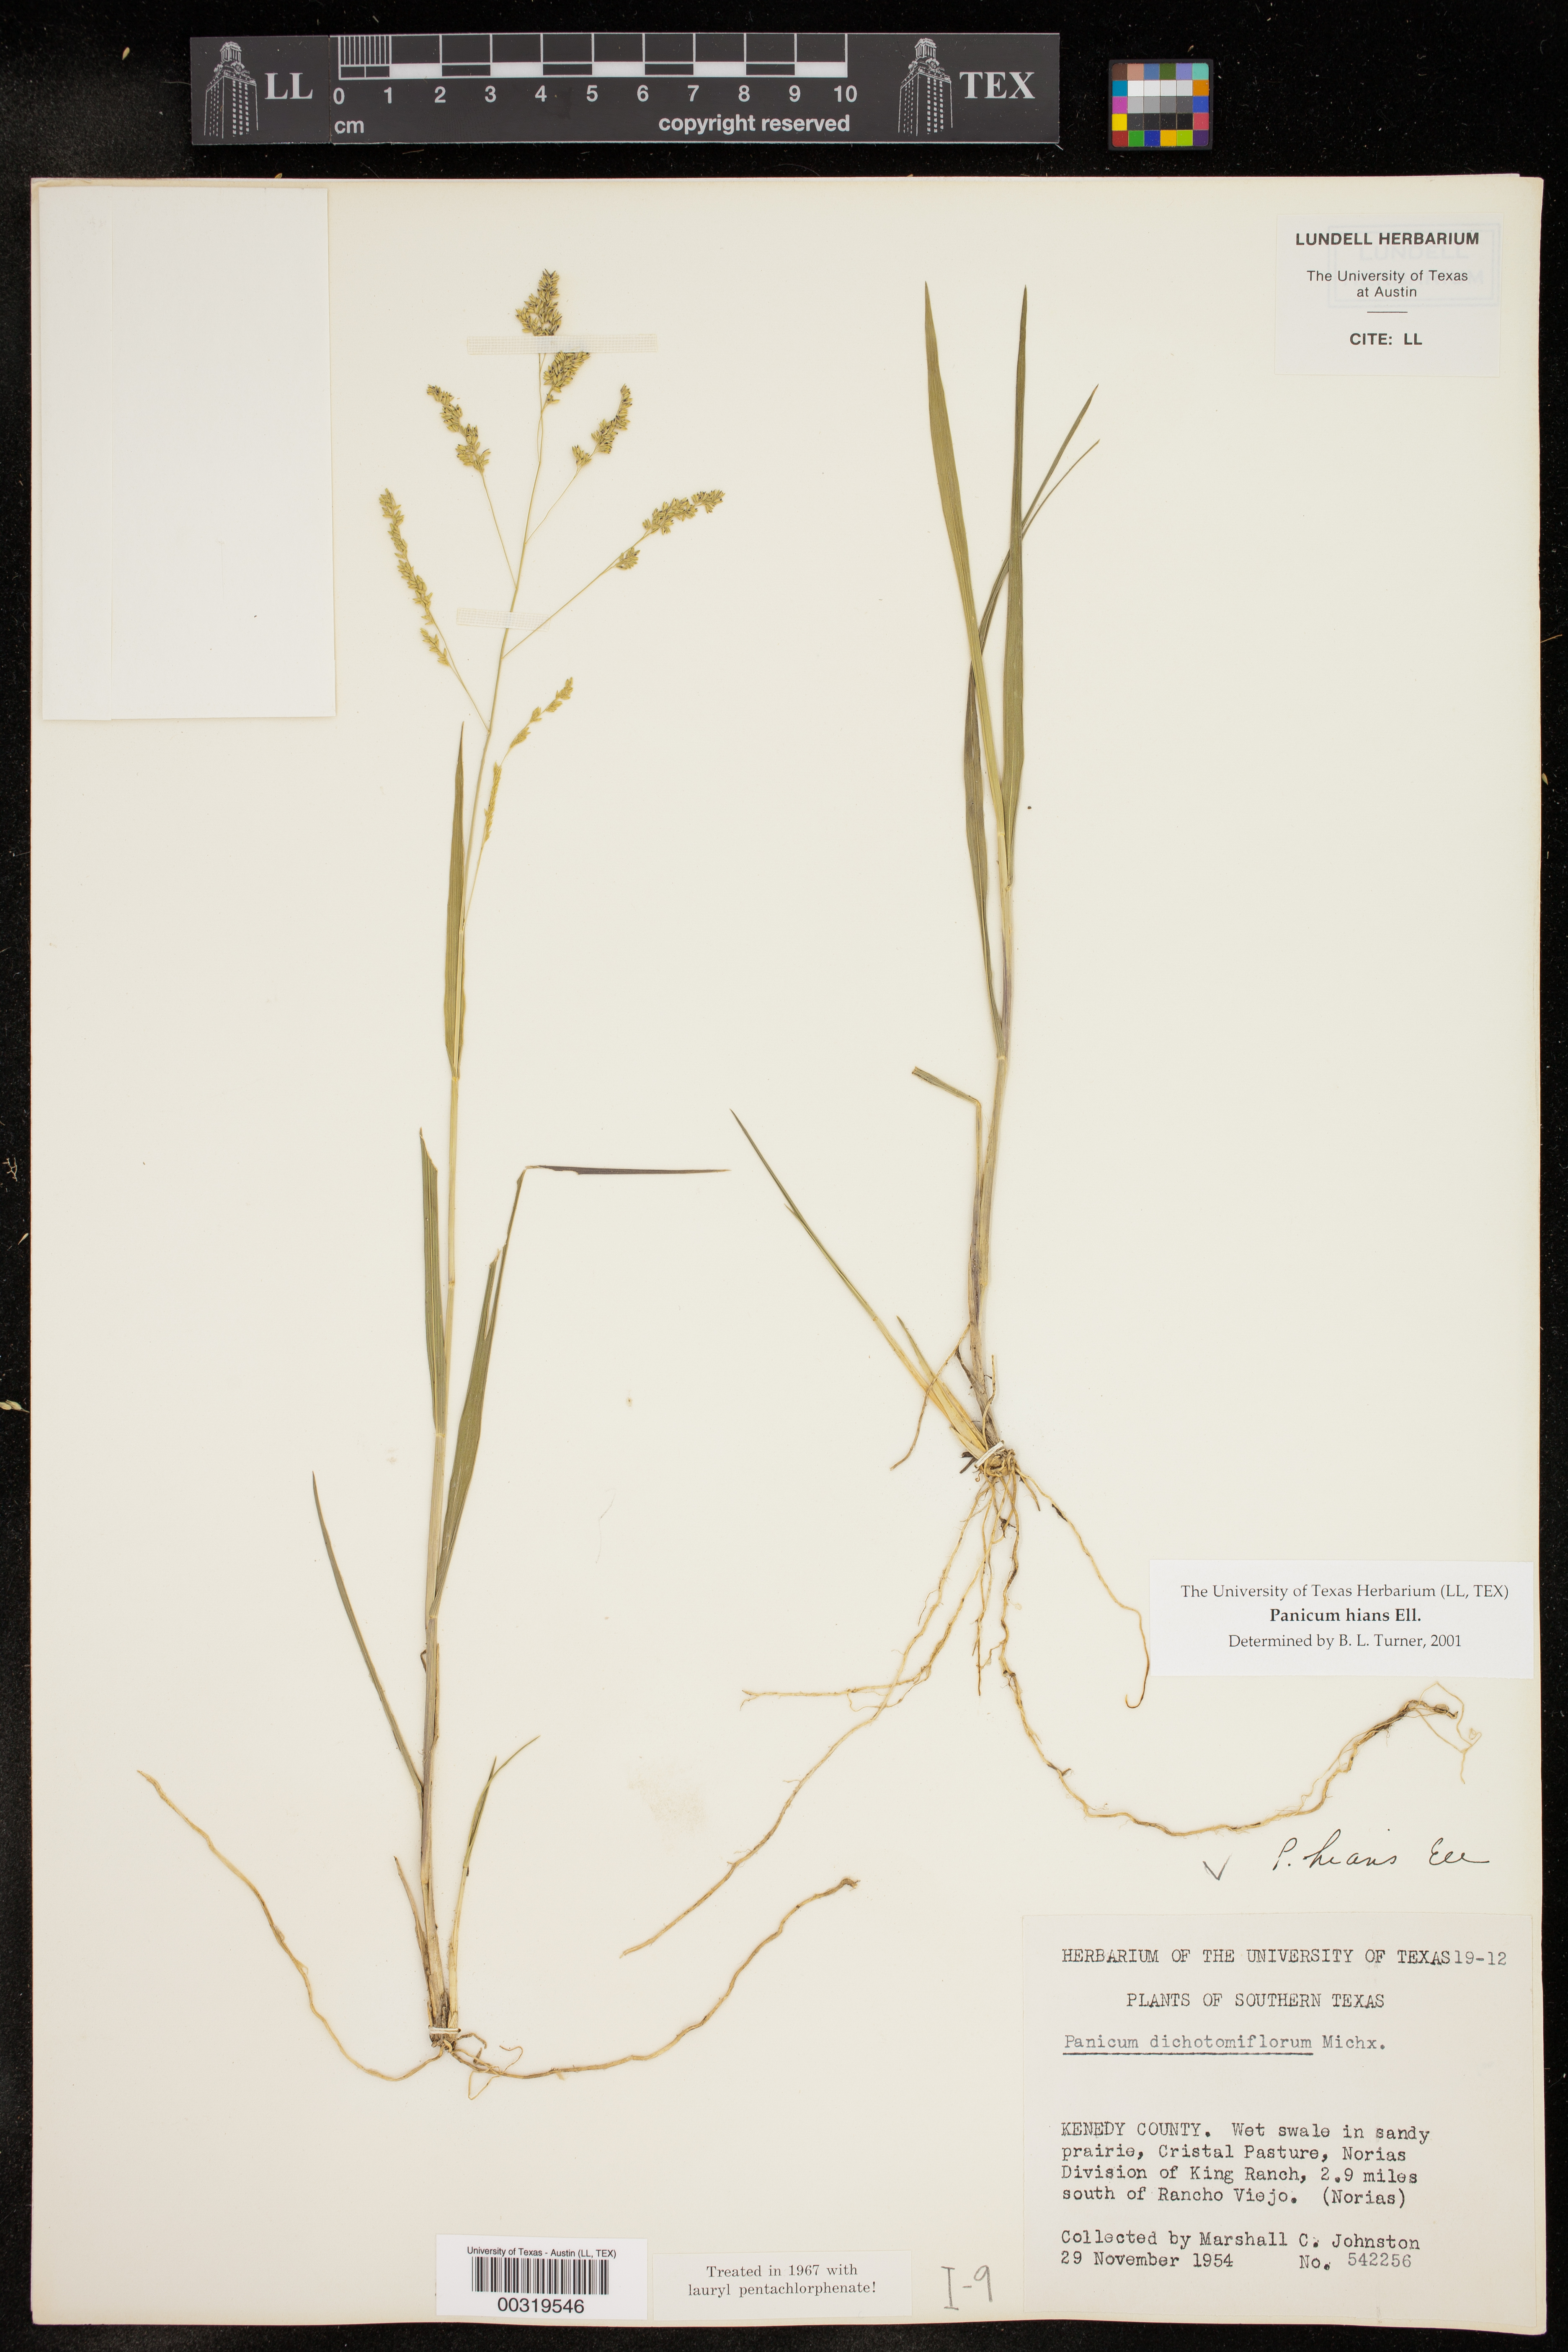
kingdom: Plantae
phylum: Tracheophyta
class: Liliopsida
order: Poales
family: Poaceae
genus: Steinchisma
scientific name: Steinchisma hians
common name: Gaping panic grass
